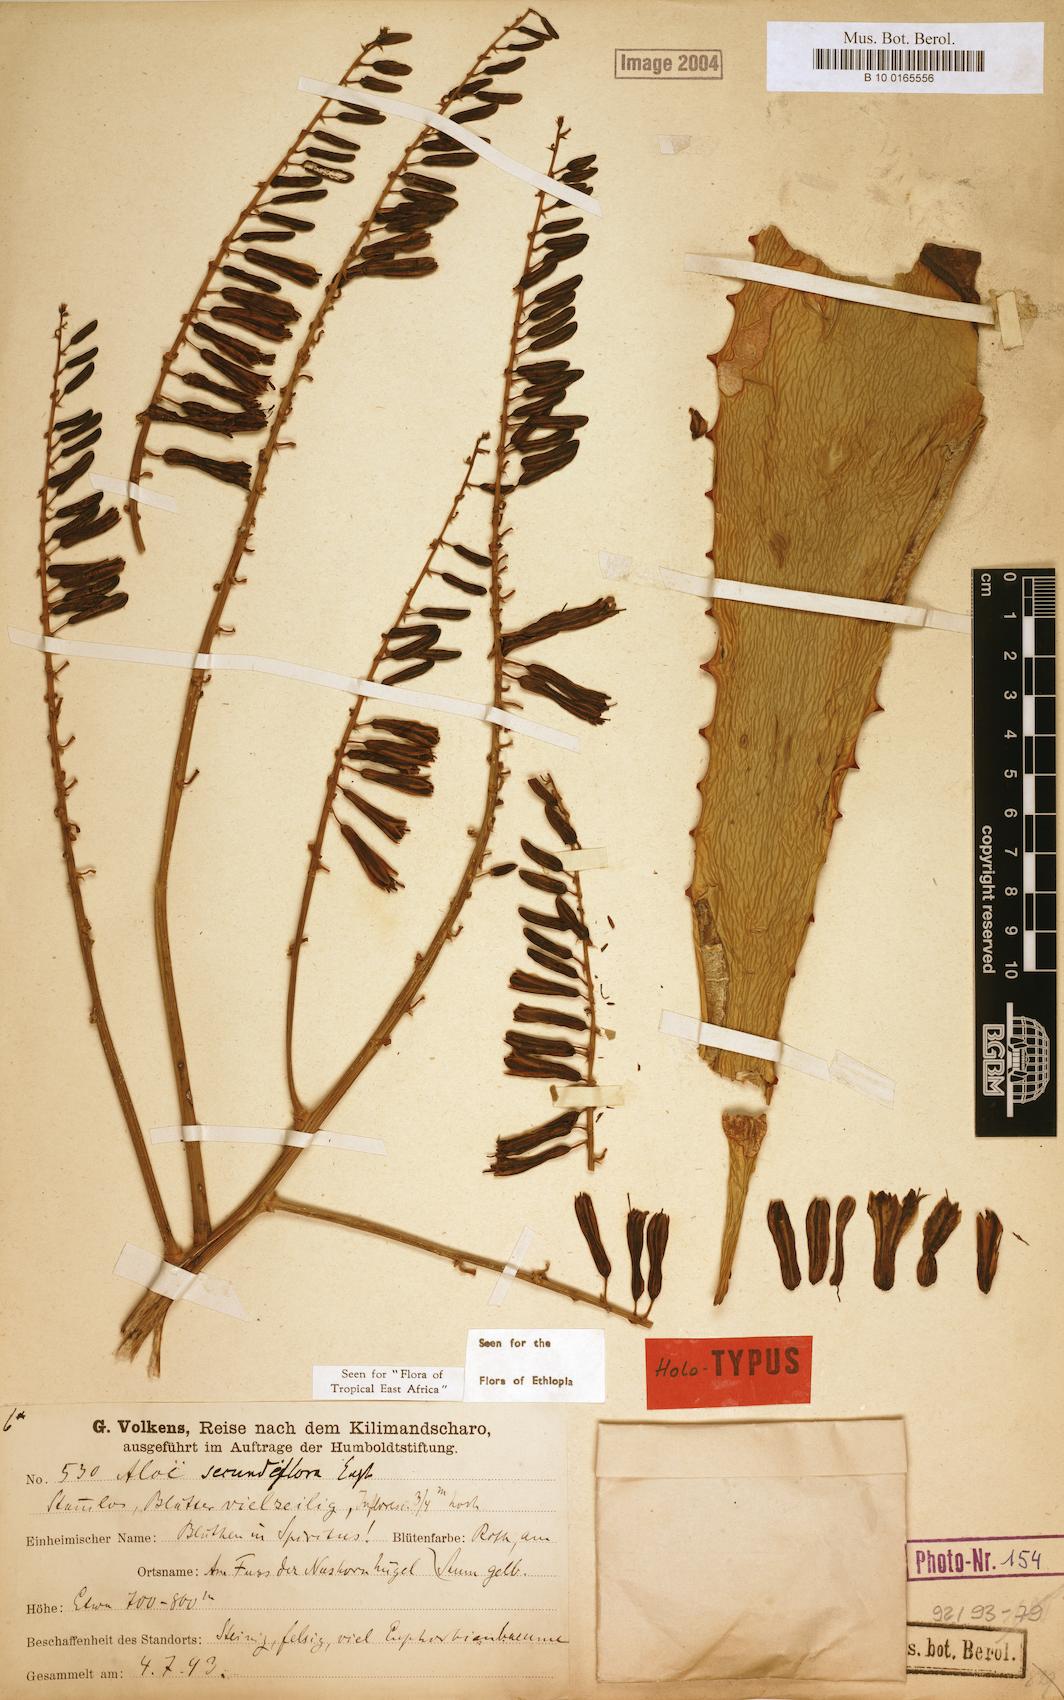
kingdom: Plantae
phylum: Tracheophyta
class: Liliopsida
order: Asparagales
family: Asphodelaceae
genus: Aloe
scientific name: Aloe secundiflora
